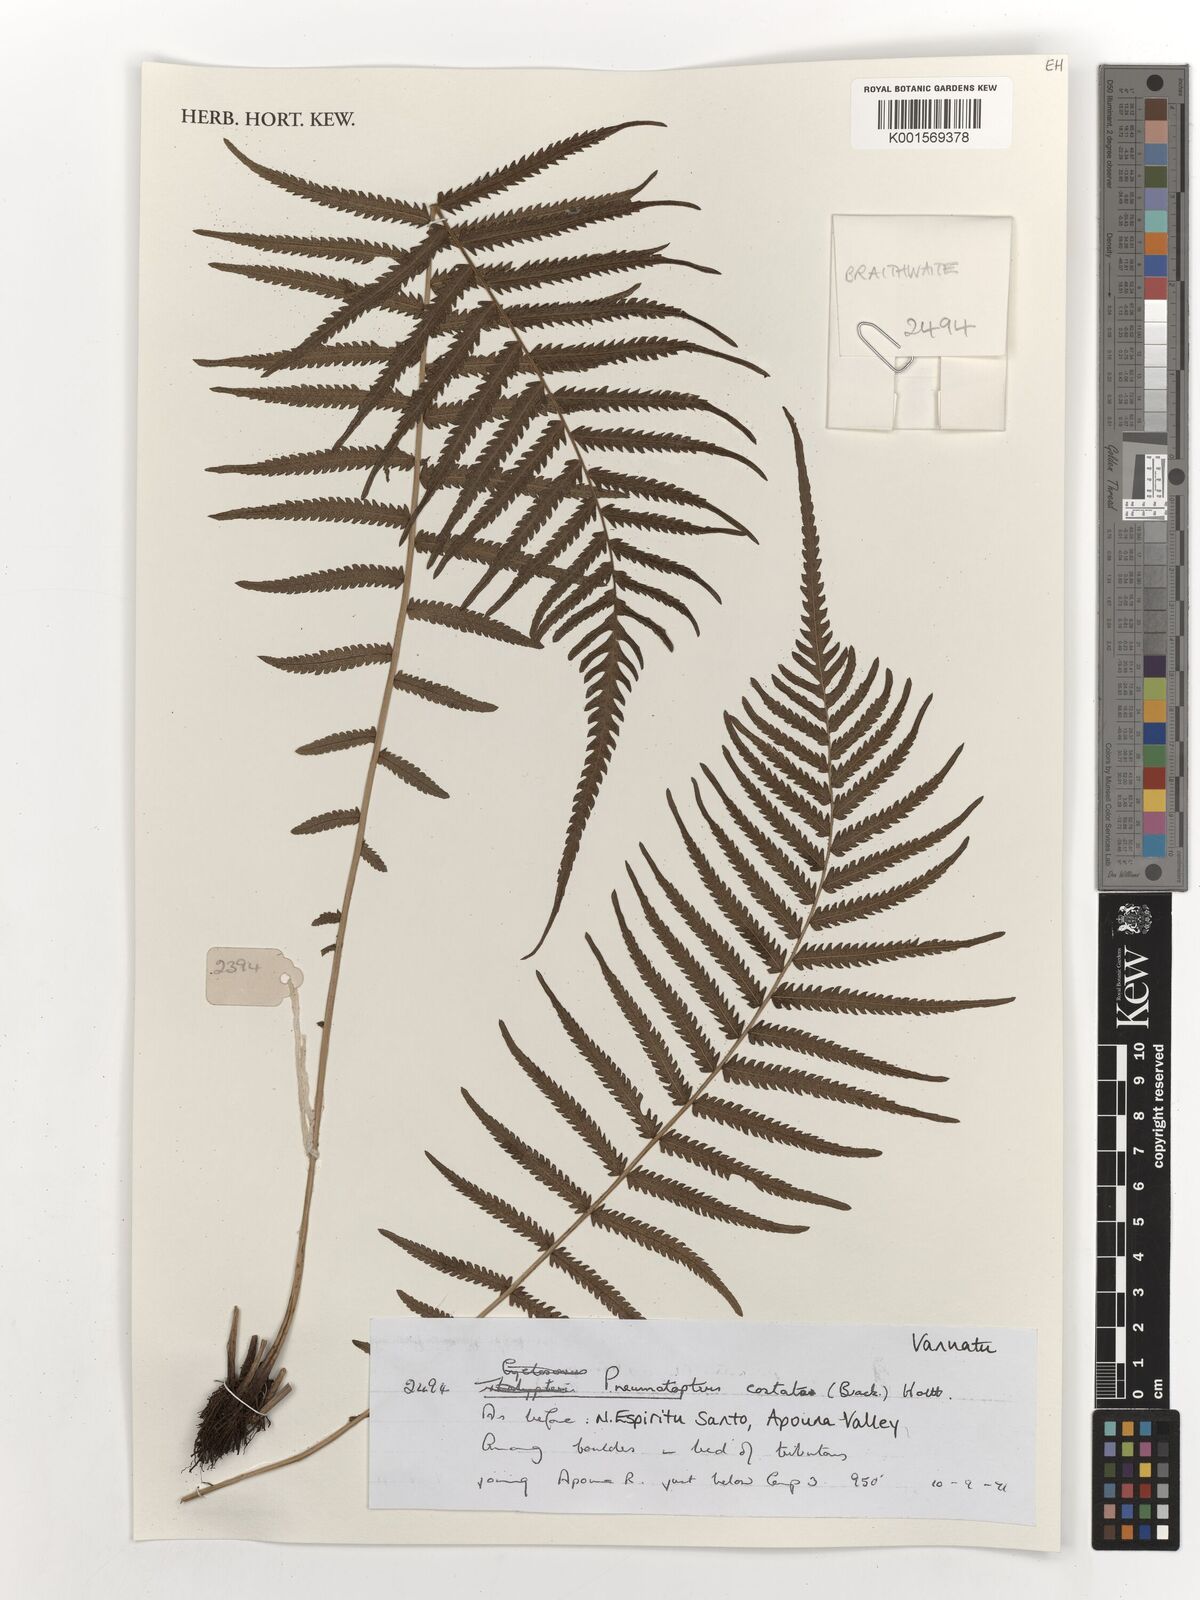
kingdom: Plantae
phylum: Tracheophyta
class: Polypodiopsida
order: Polypodiales
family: Thelypteridaceae
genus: Reholttumia
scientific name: Reholttumia costata
